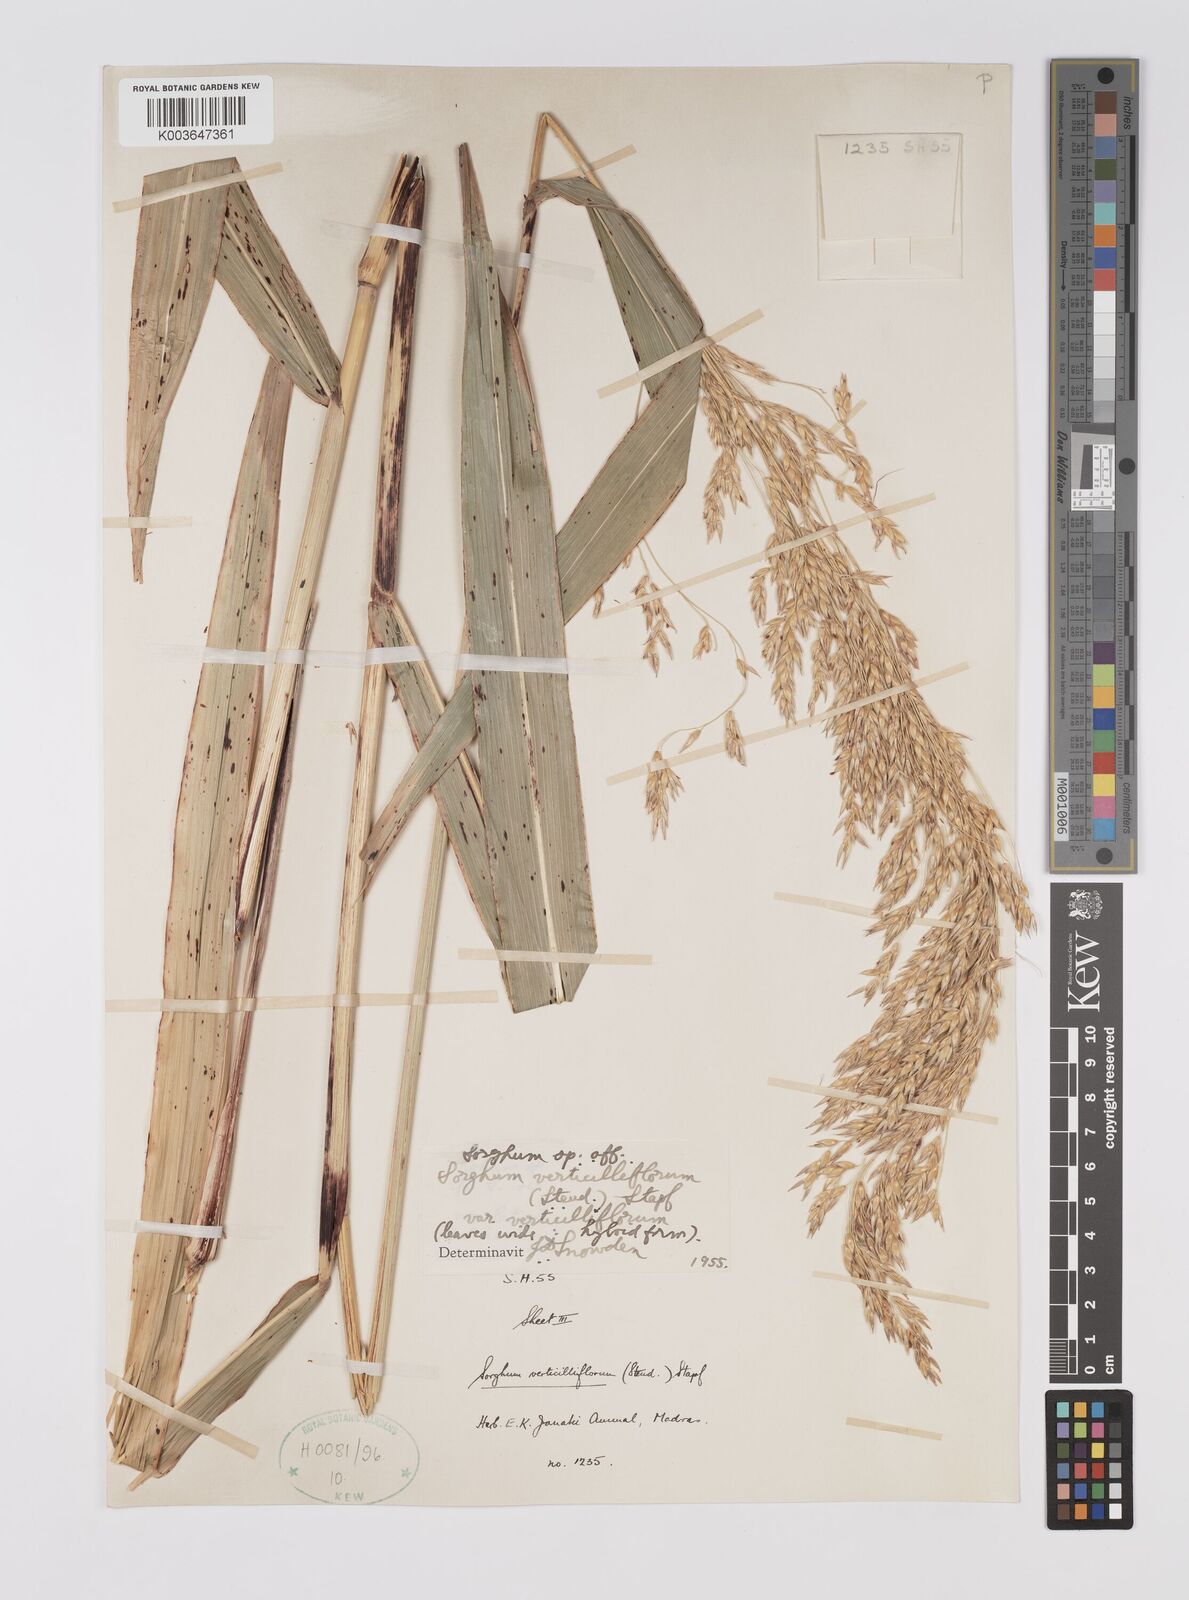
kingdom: Plantae
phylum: Tracheophyta
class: Liliopsida
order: Poales
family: Poaceae
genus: Sorghum
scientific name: Sorghum arundinaceum
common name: Sorghum
